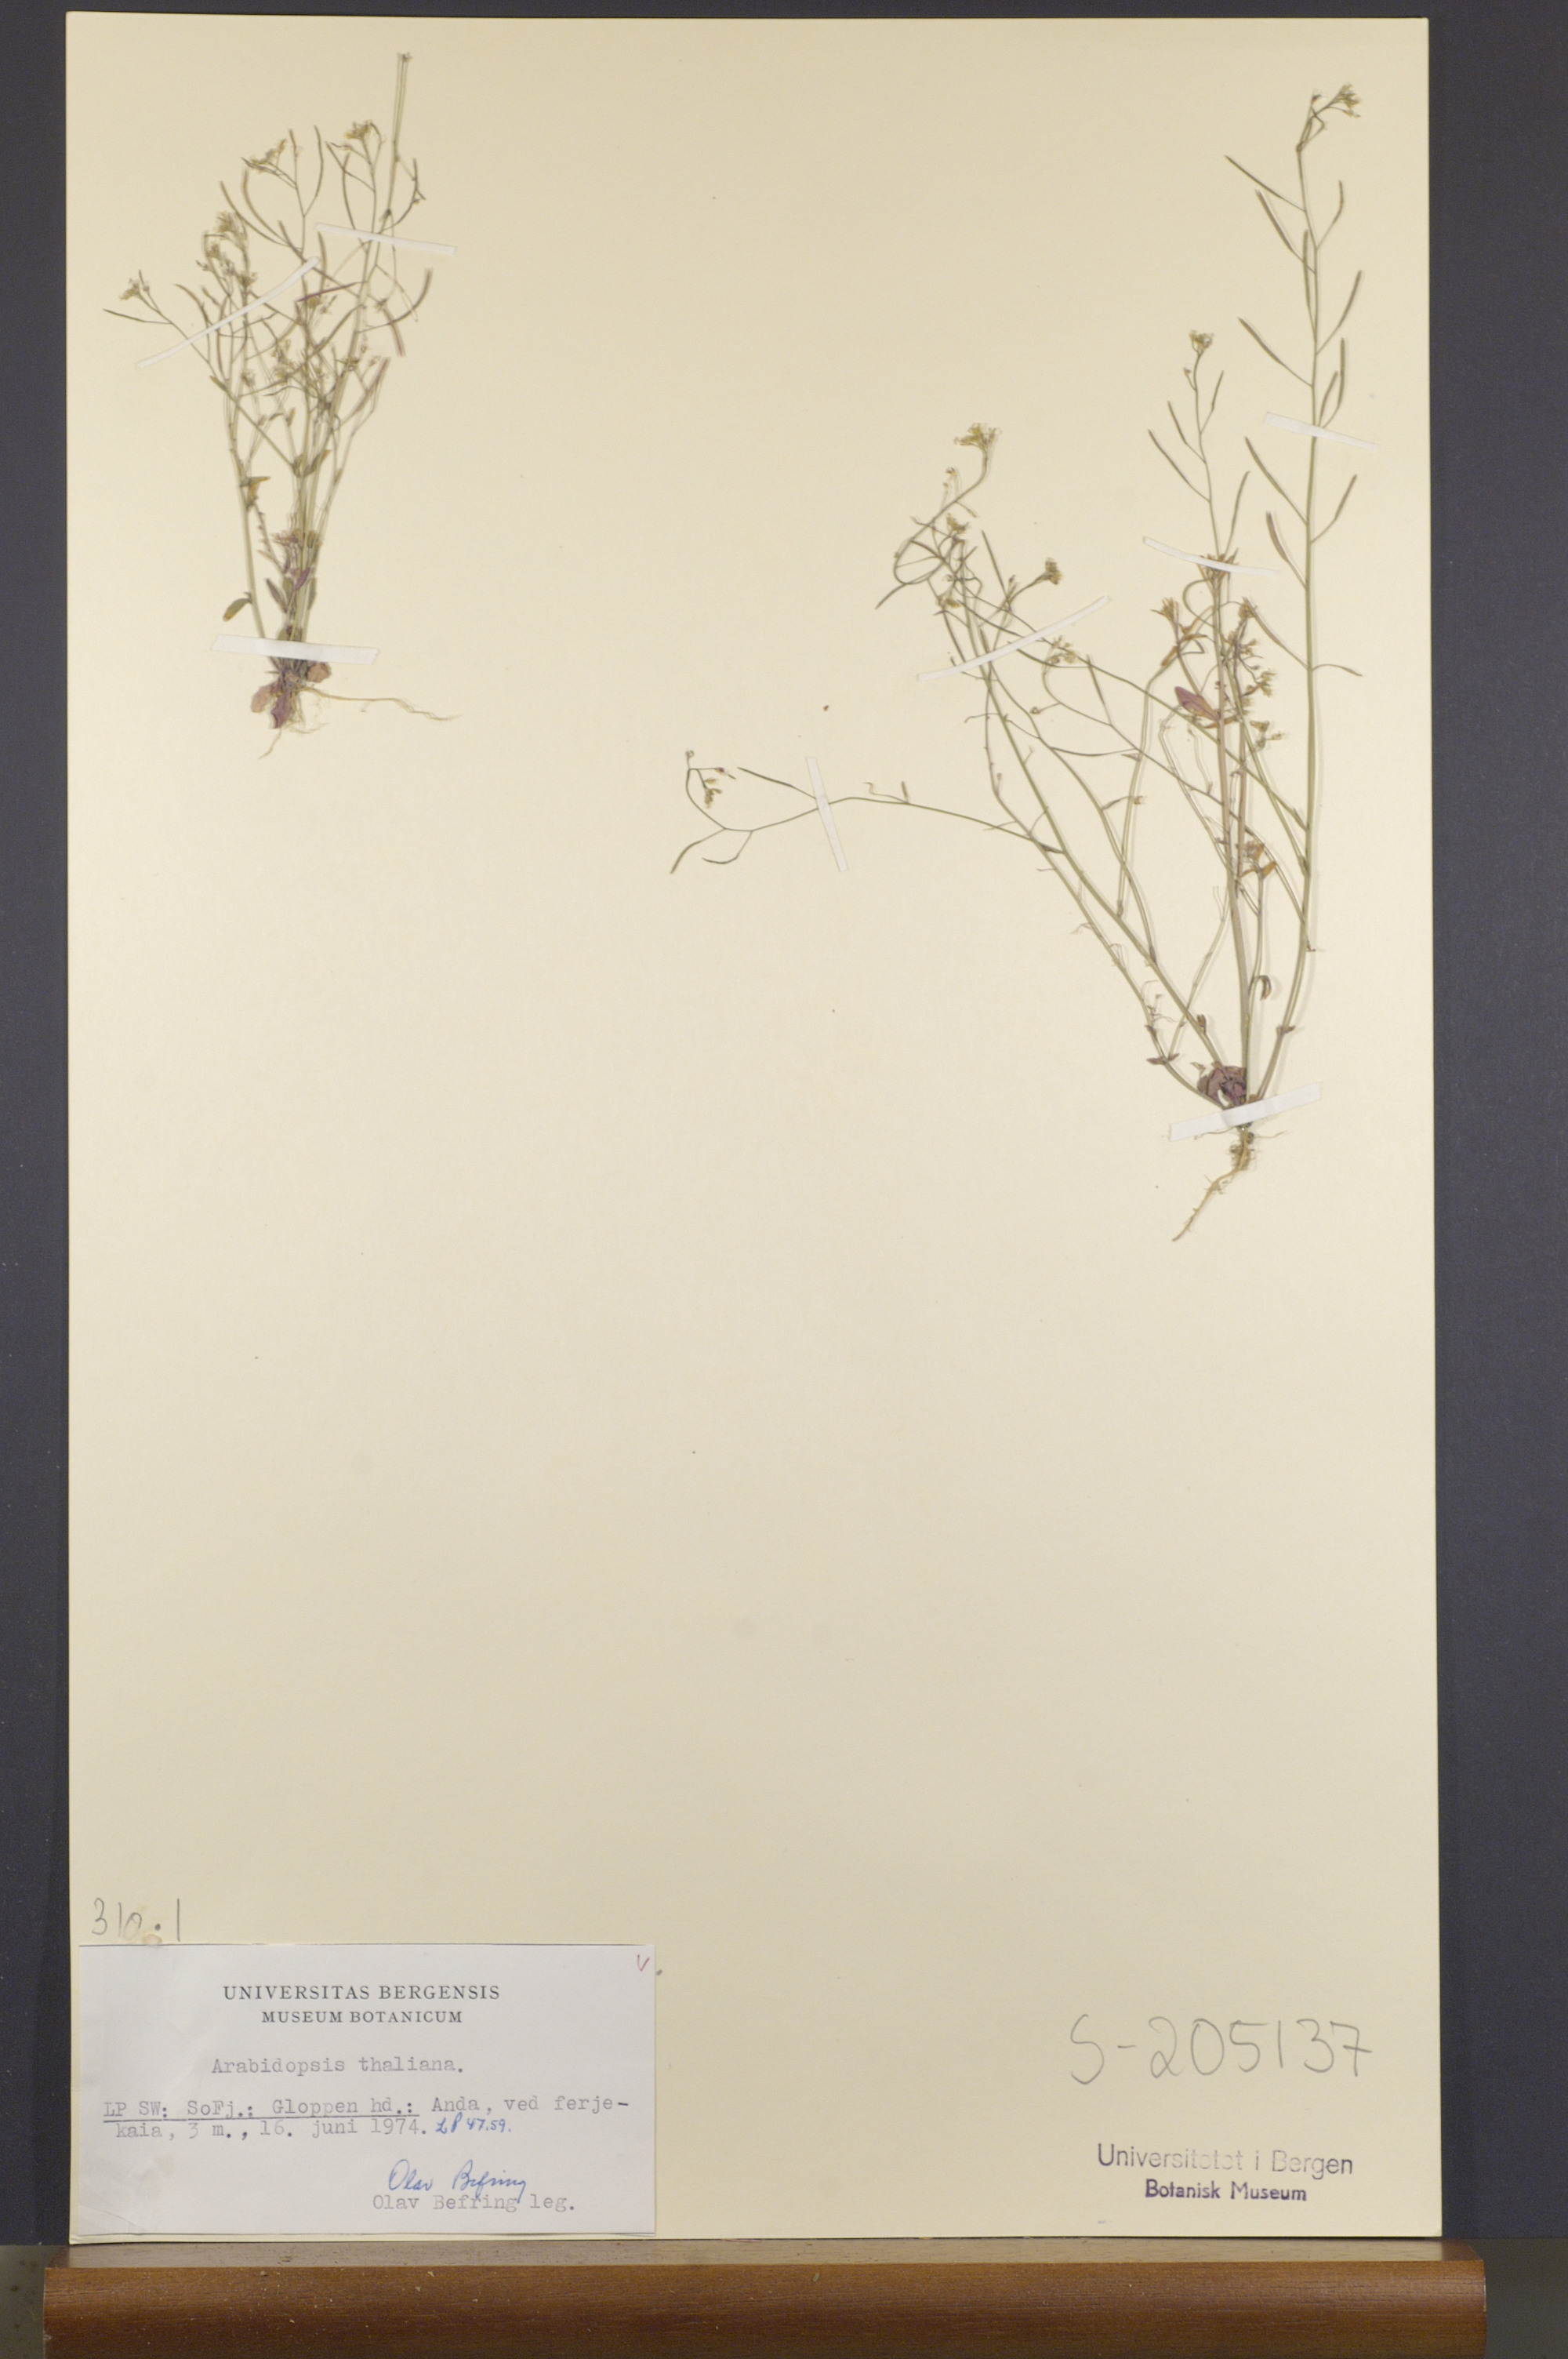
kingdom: Plantae
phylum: Tracheophyta
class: Magnoliopsida
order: Brassicales
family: Brassicaceae
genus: Arabidopsis
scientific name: Arabidopsis thaliana
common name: Thale cress
